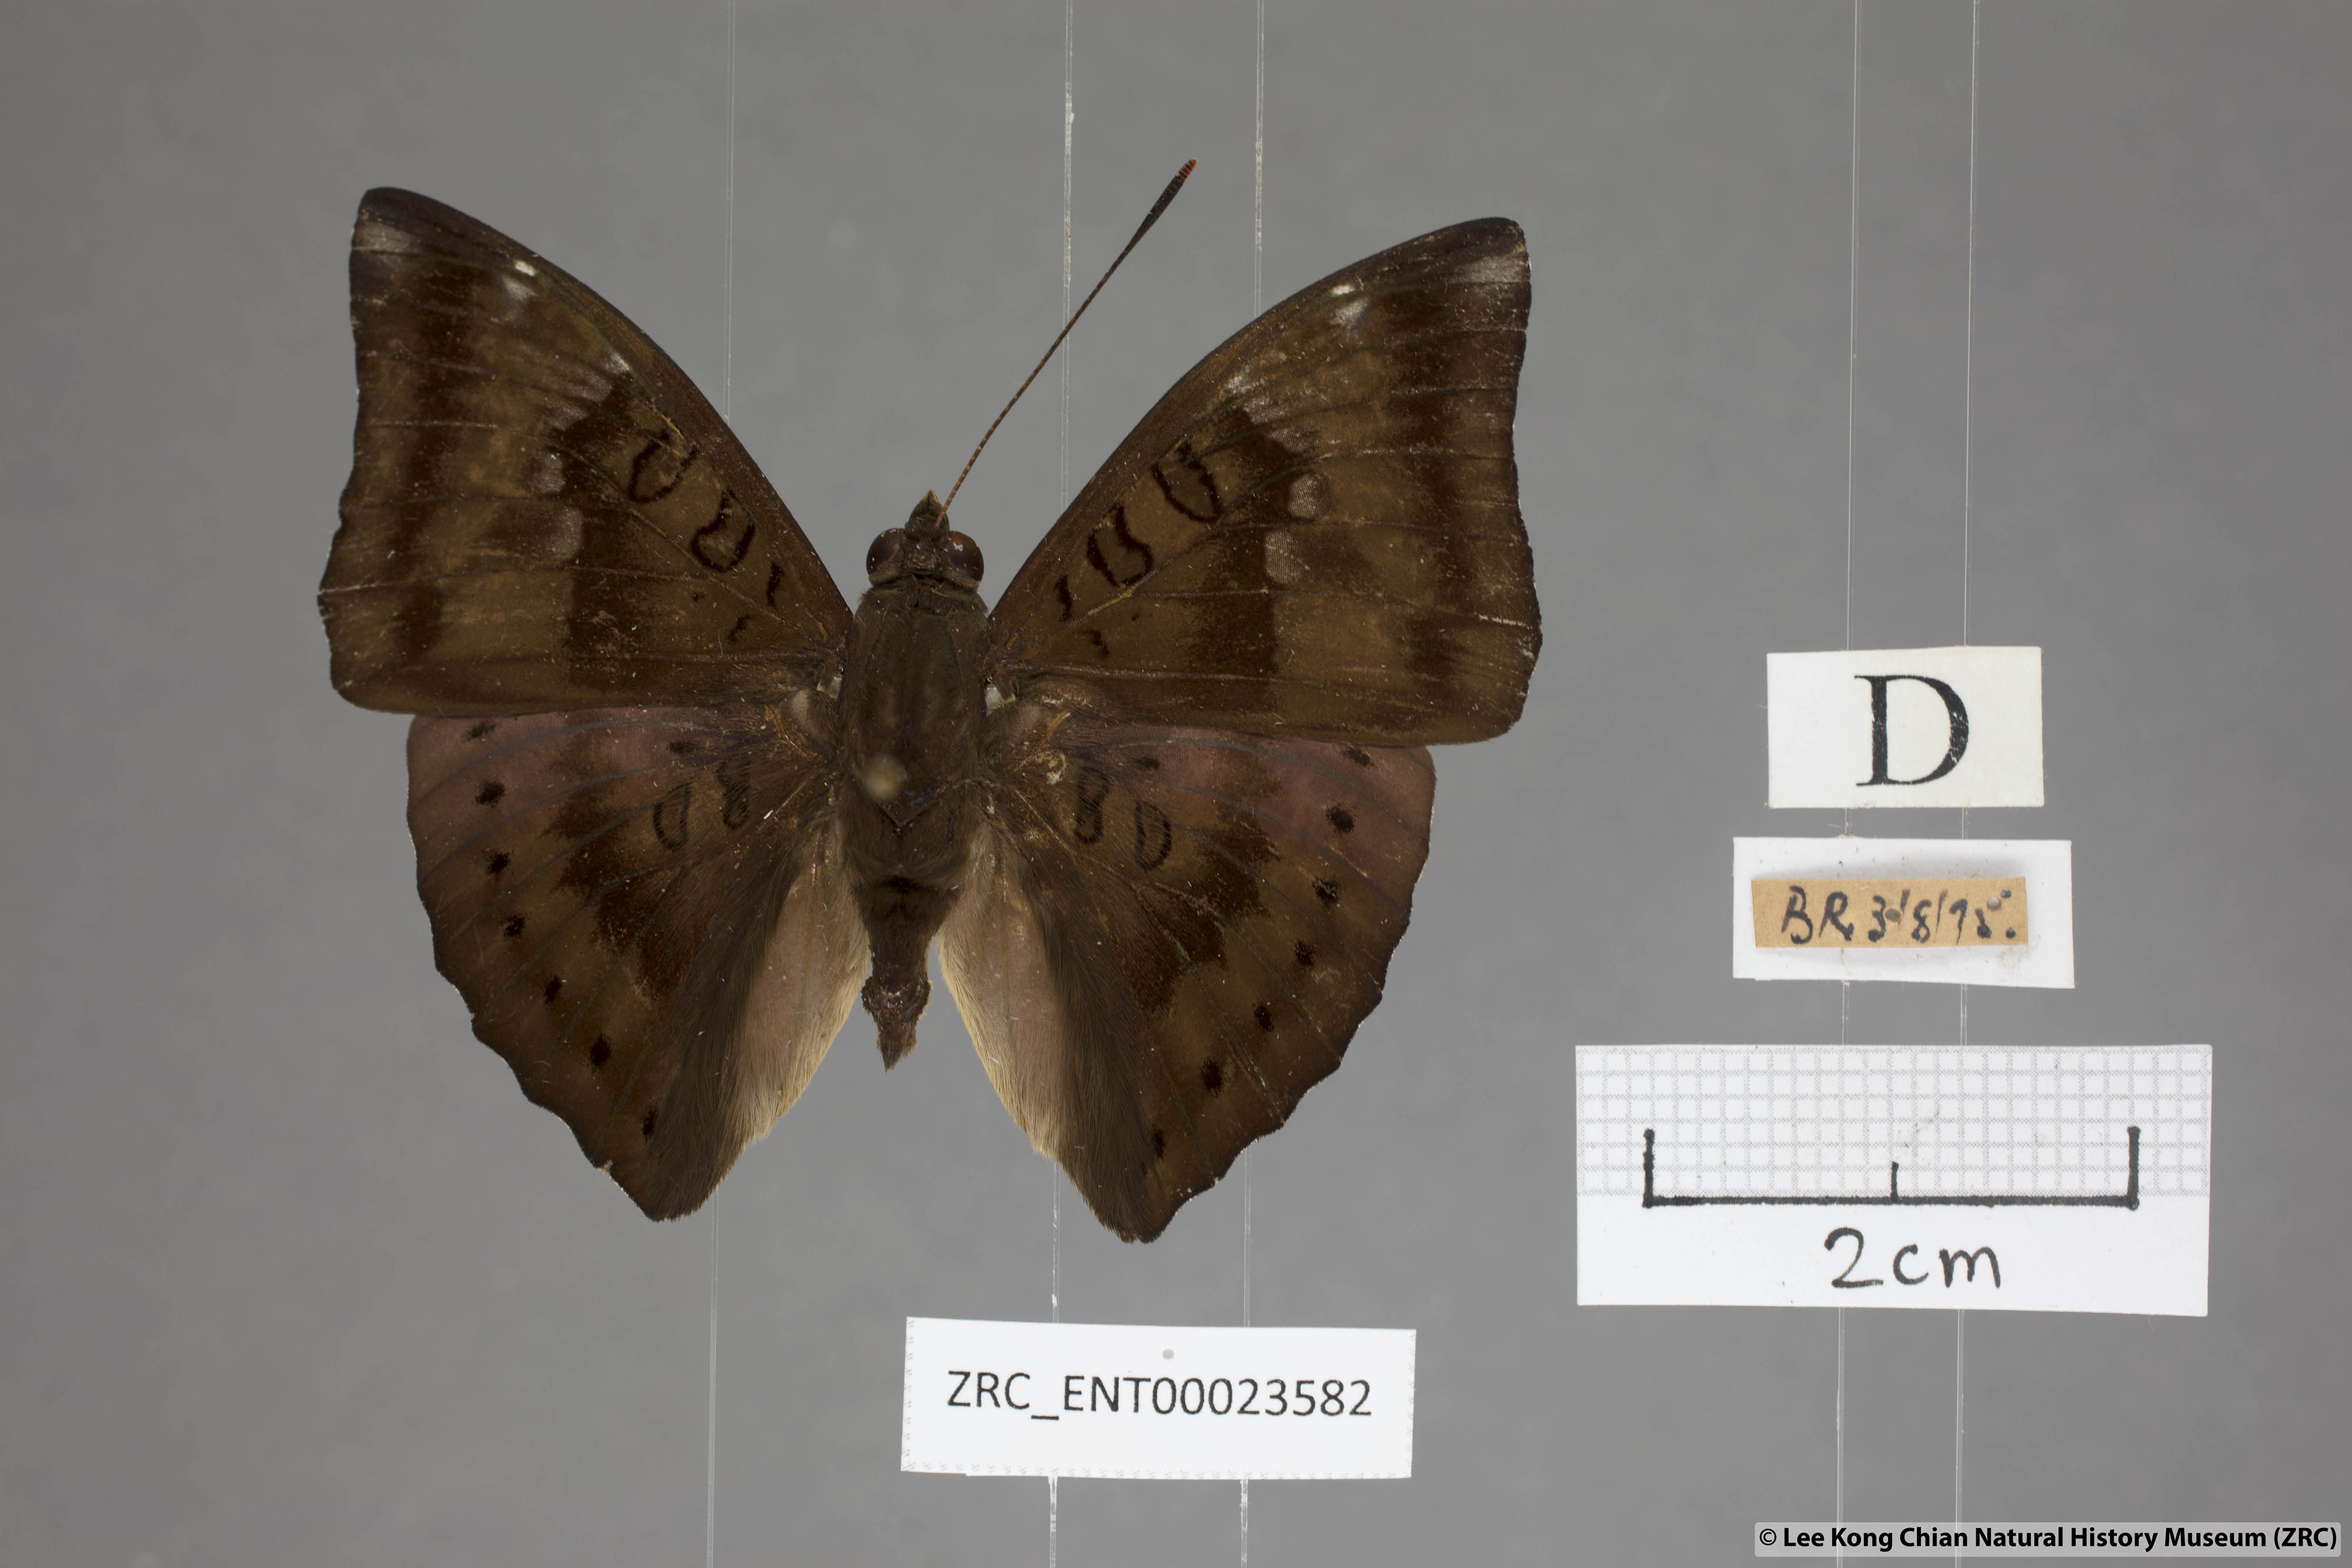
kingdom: Animalia
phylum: Arthropoda
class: Insecta
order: Lepidoptera
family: Nymphalidae
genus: Euthalia
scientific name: Euthalia aconthea
